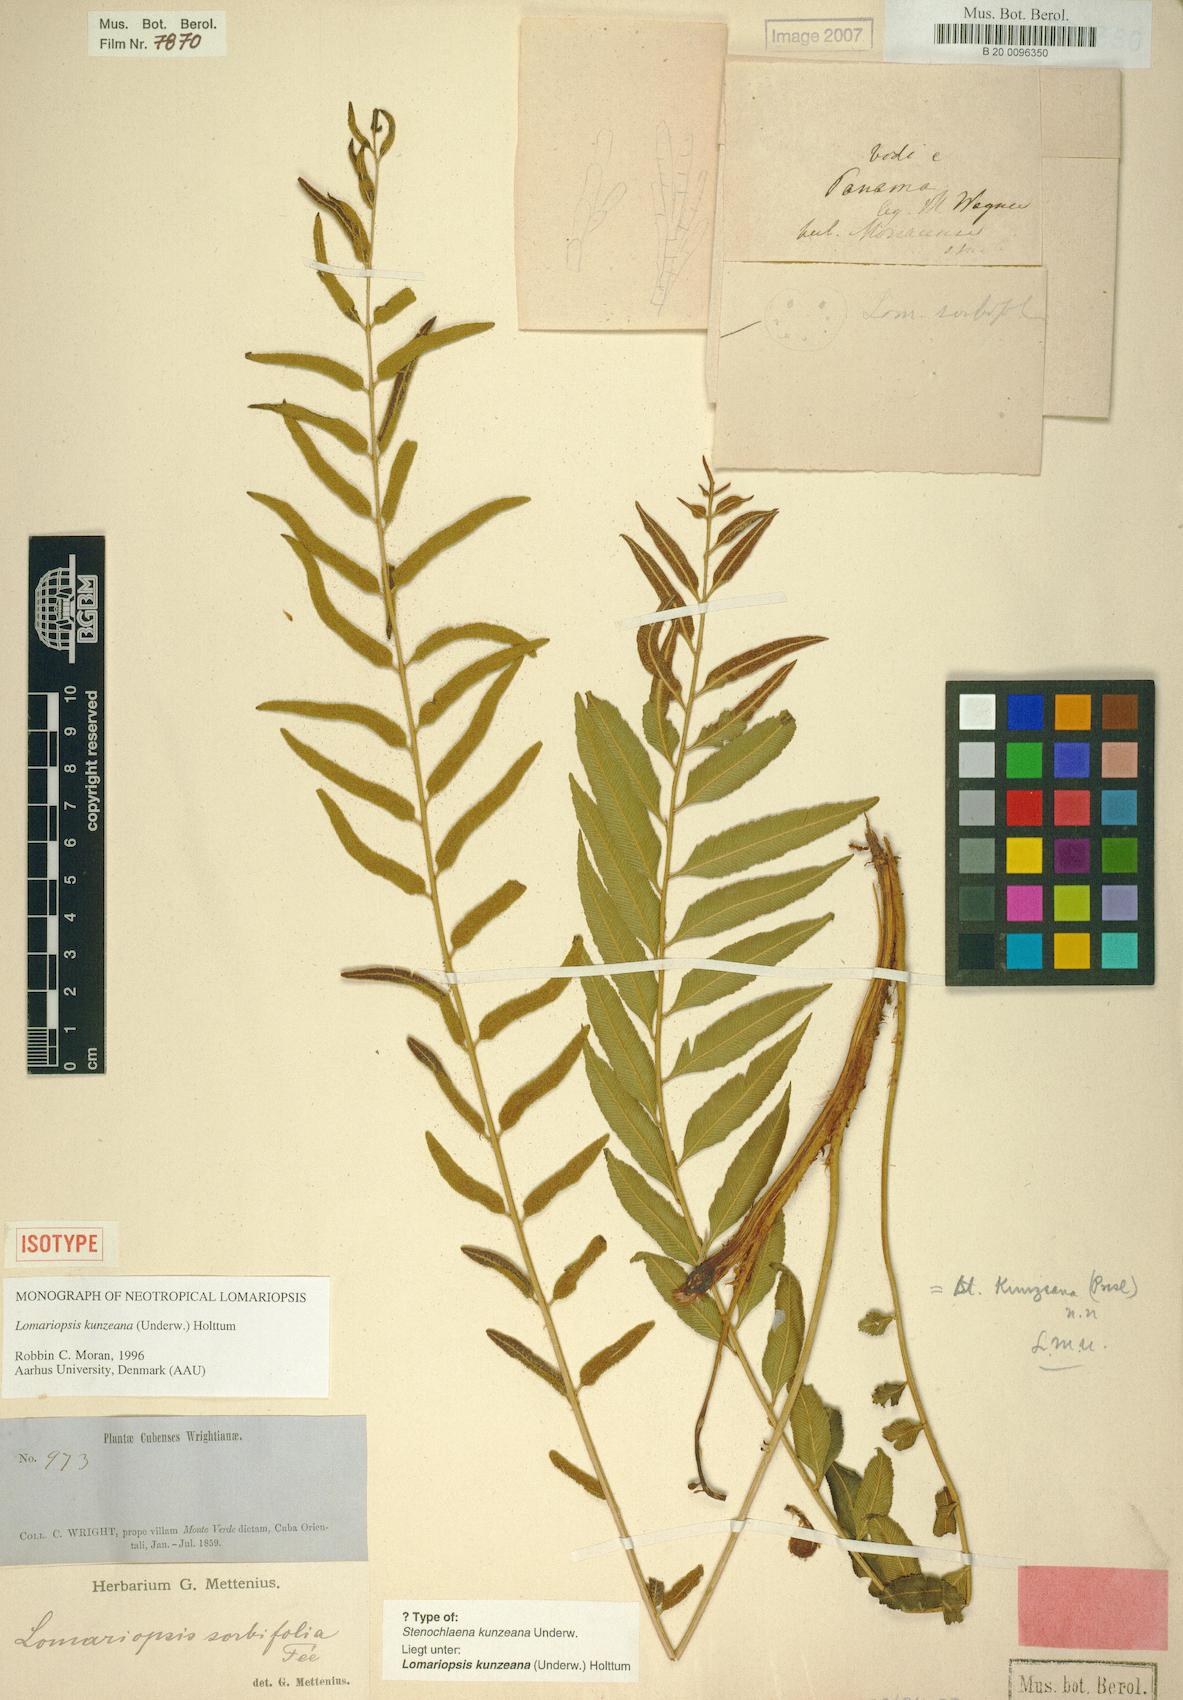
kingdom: Plantae
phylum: Tracheophyta
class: Polypodiopsida
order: Polypodiales
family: Lomariopsidaceae
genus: Lomariopsis
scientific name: Lomariopsis kunzeana
